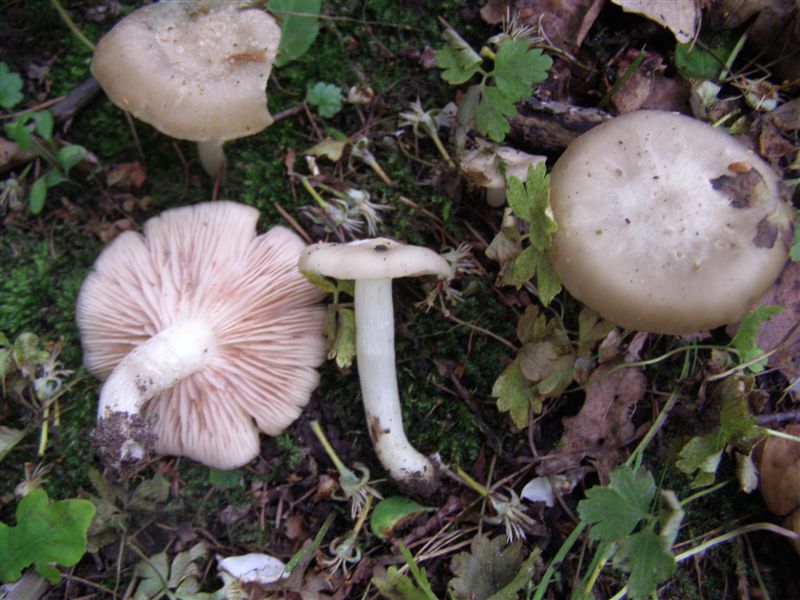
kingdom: Fungi
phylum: Basidiomycota
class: Agaricomycetes
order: Agaricales
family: Entolomataceae
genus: Entoloma
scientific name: Entoloma clypeatum
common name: flammet rødblad
